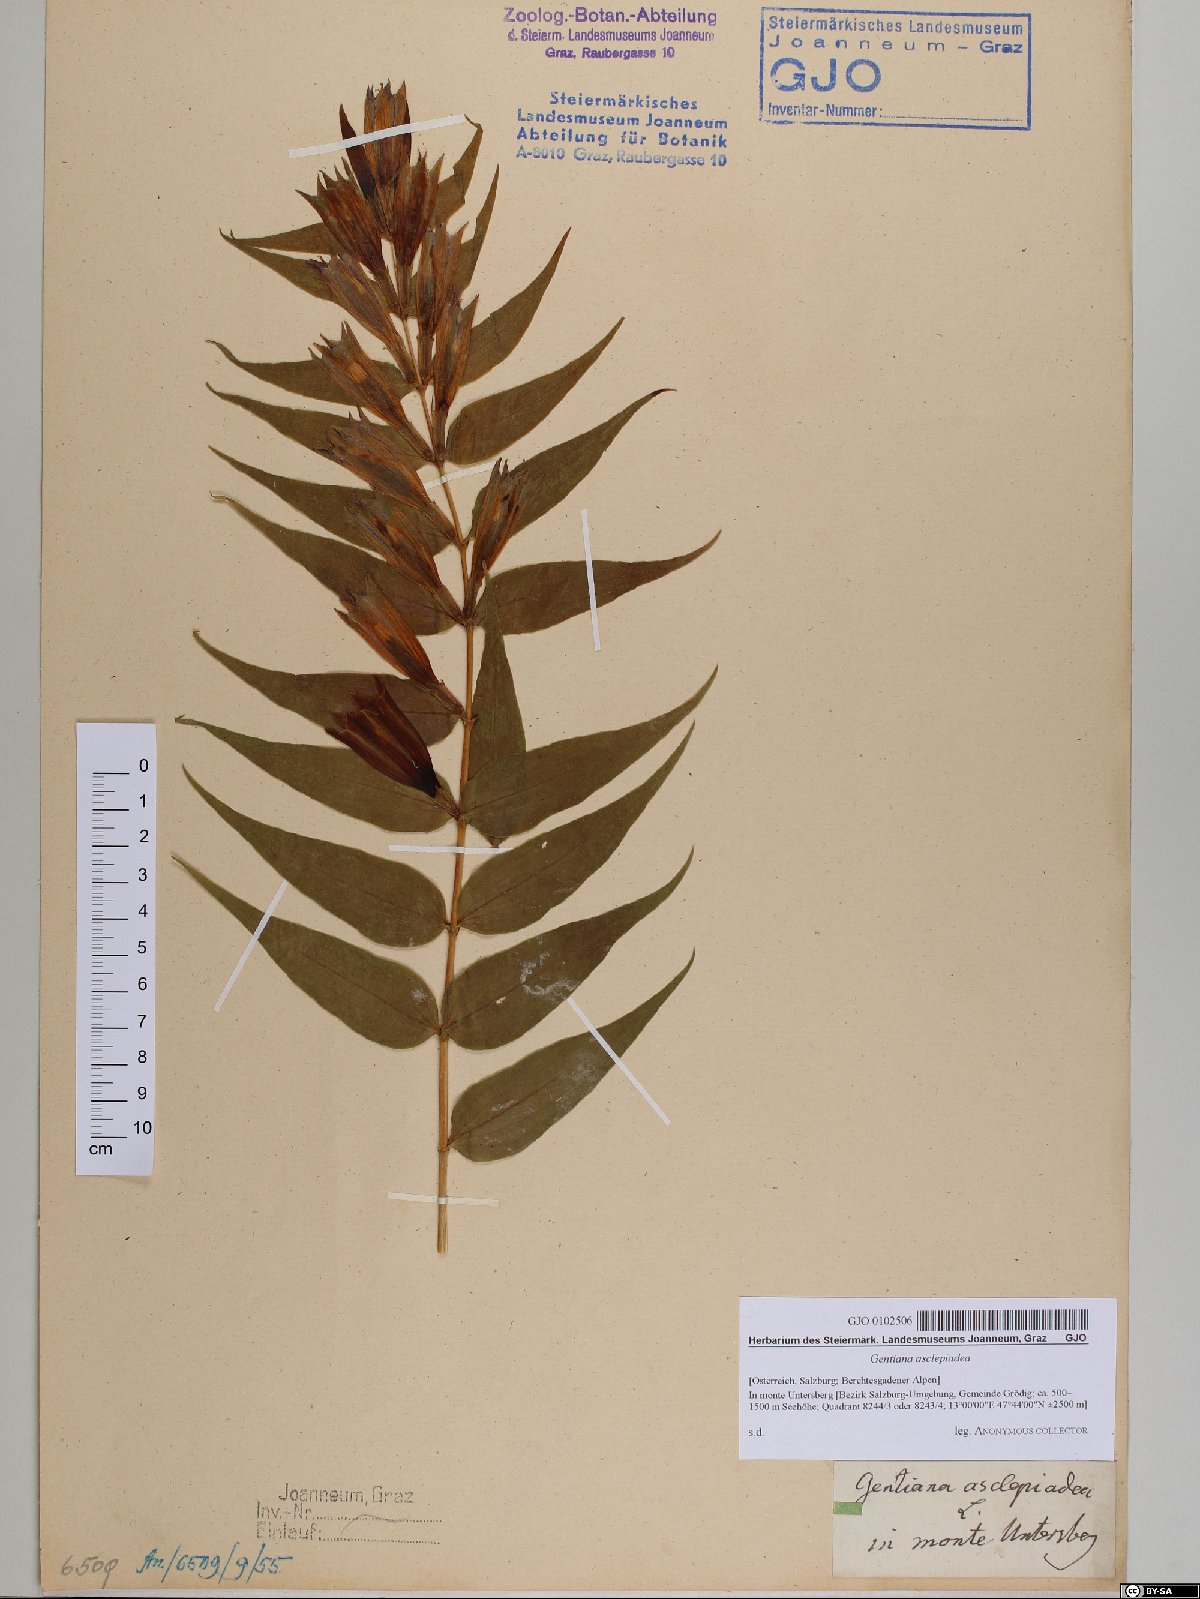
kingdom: Plantae
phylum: Tracheophyta
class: Magnoliopsida
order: Gentianales
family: Gentianaceae
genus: Gentiana
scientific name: Gentiana asclepiadea
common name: Willow gentian
